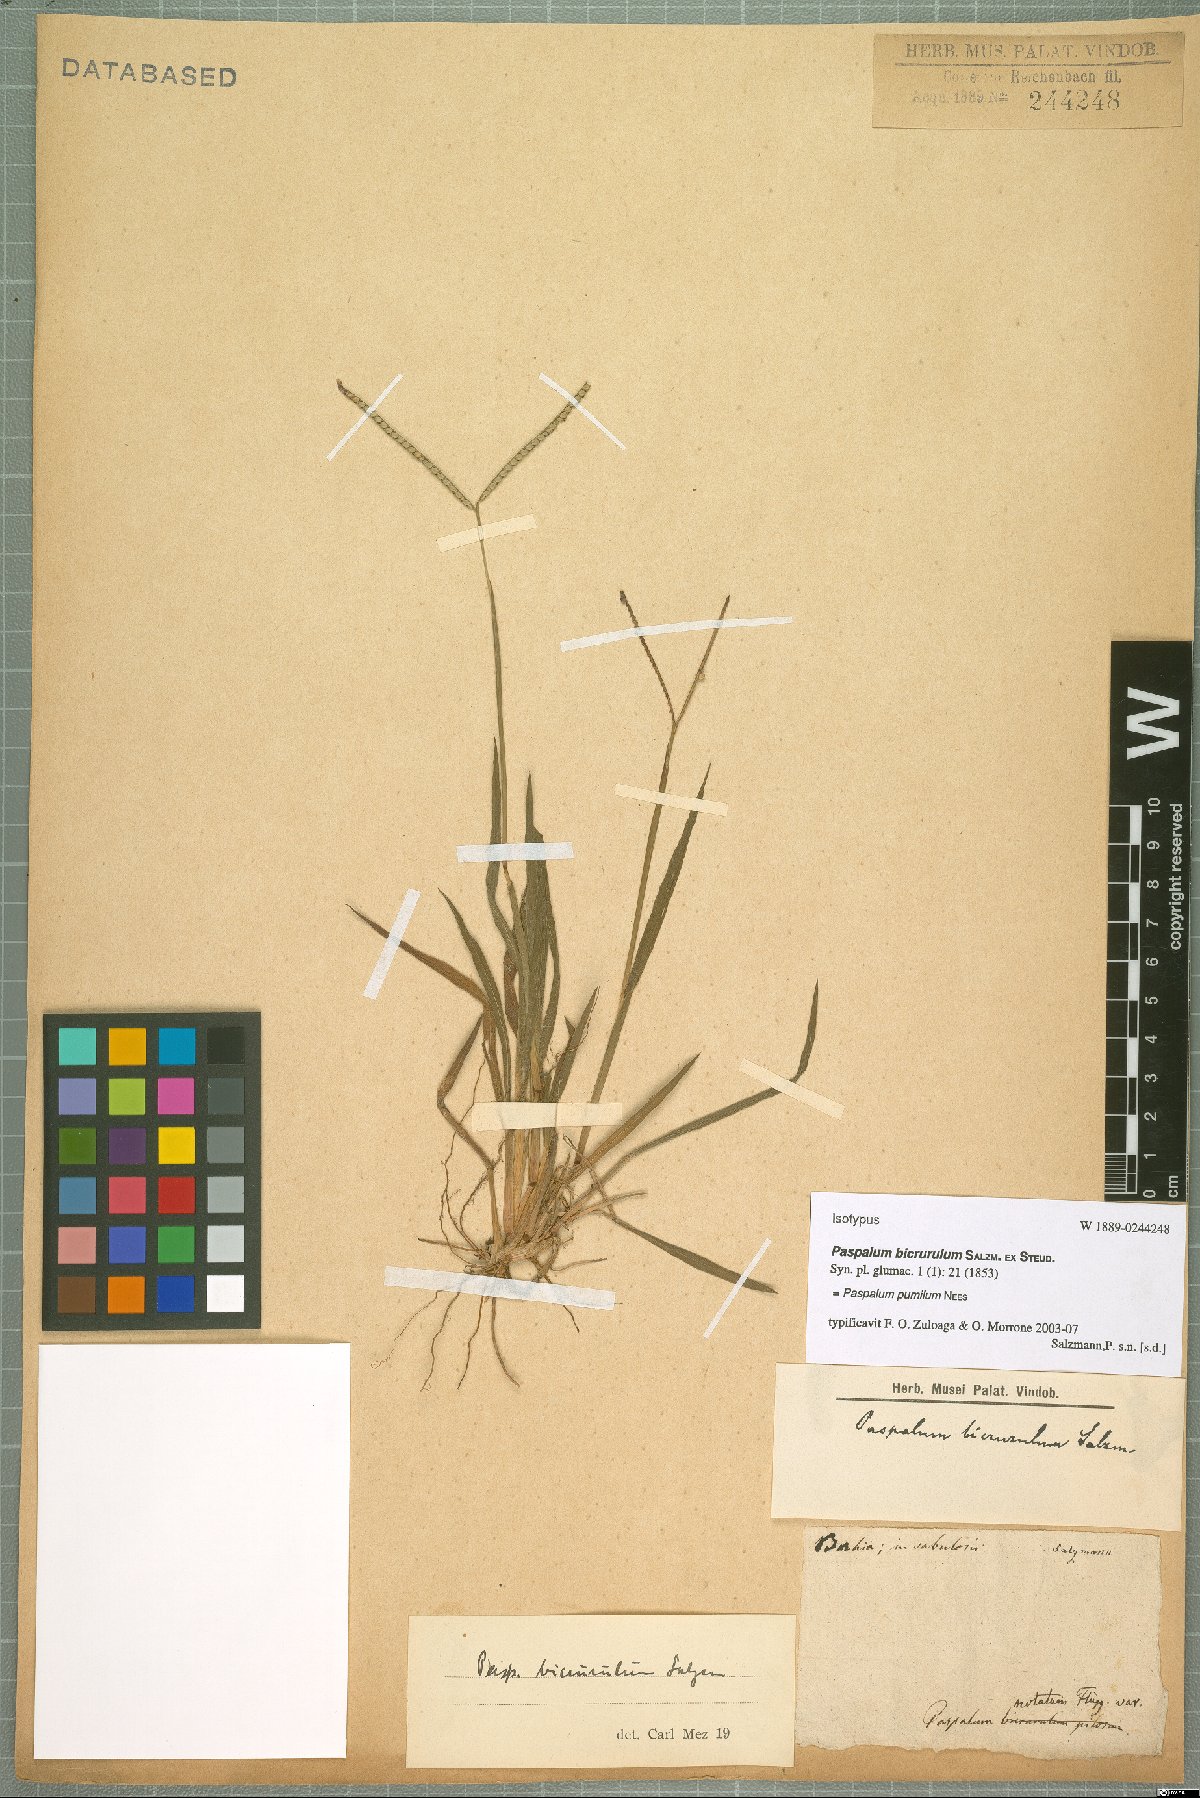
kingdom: Plantae
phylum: Tracheophyta
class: Liliopsida
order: Poales
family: Poaceae
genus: Paspalum
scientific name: Paspalum pumilum
